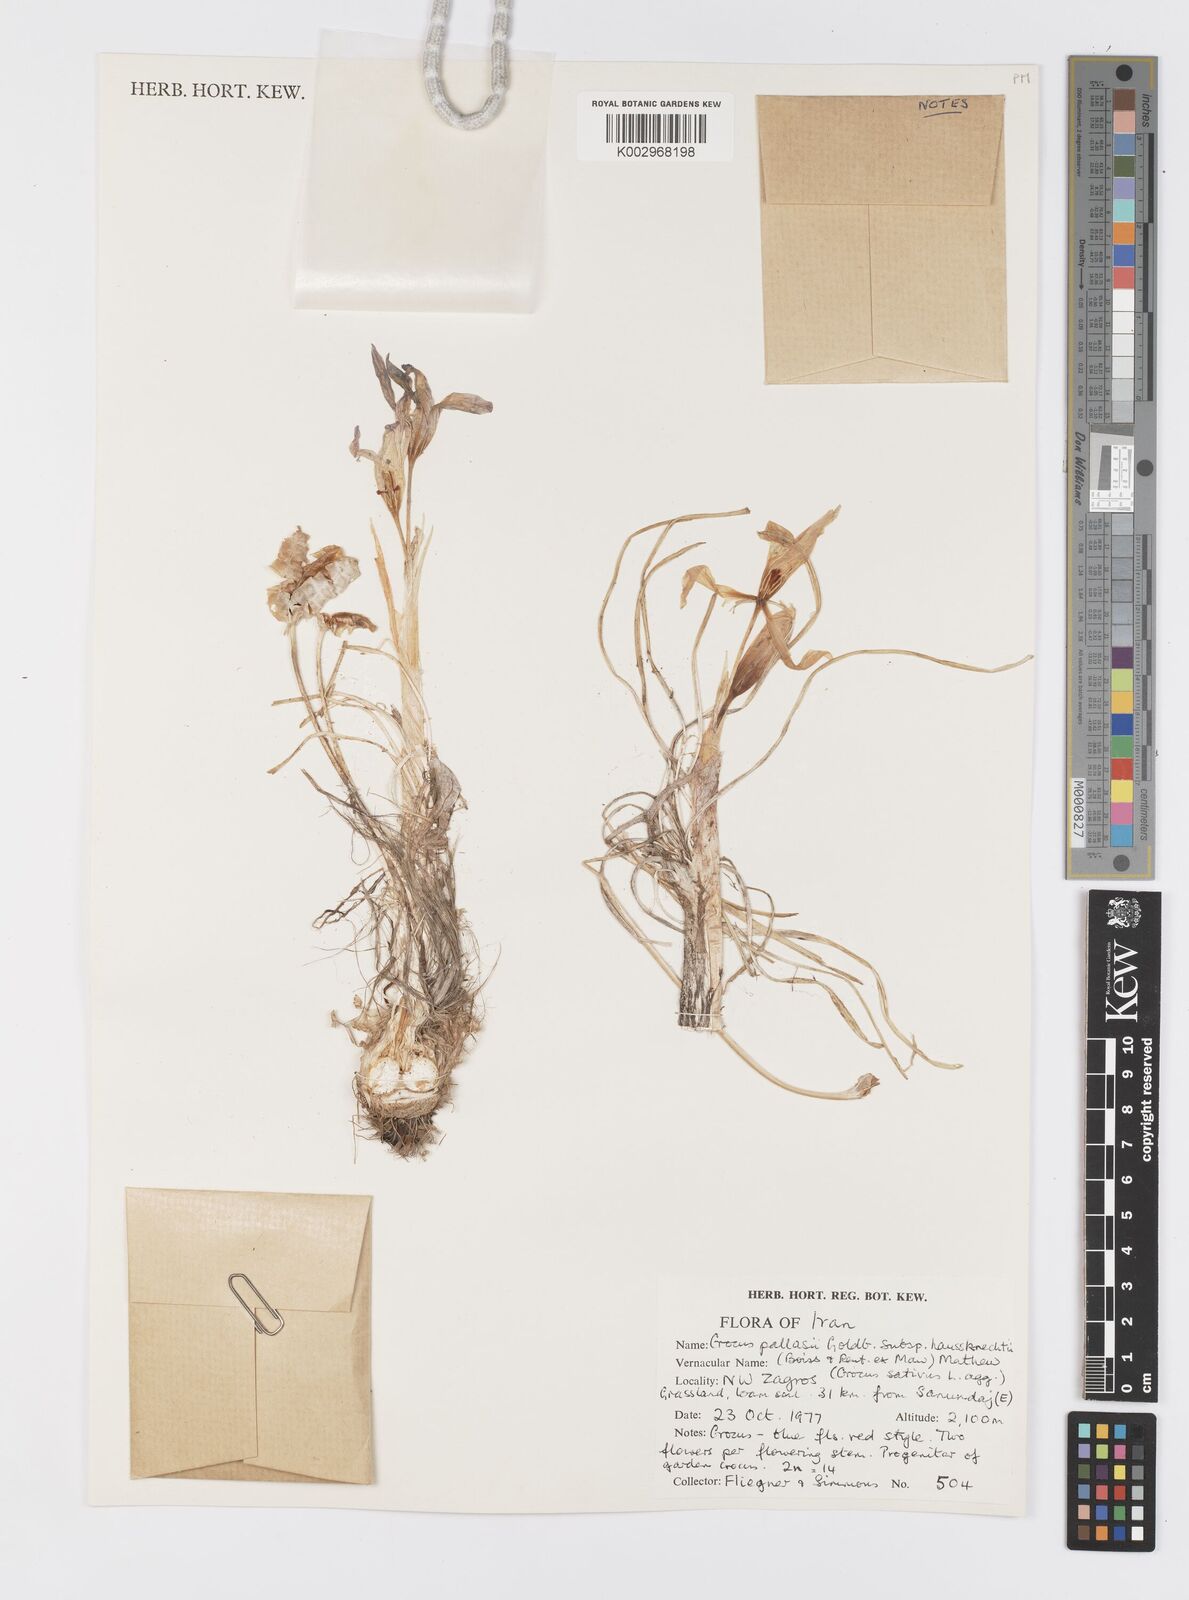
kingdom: Plantae
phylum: Tracheophyta
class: Liliopsida
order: Asparagales
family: Iridaceae
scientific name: Iridaceae
